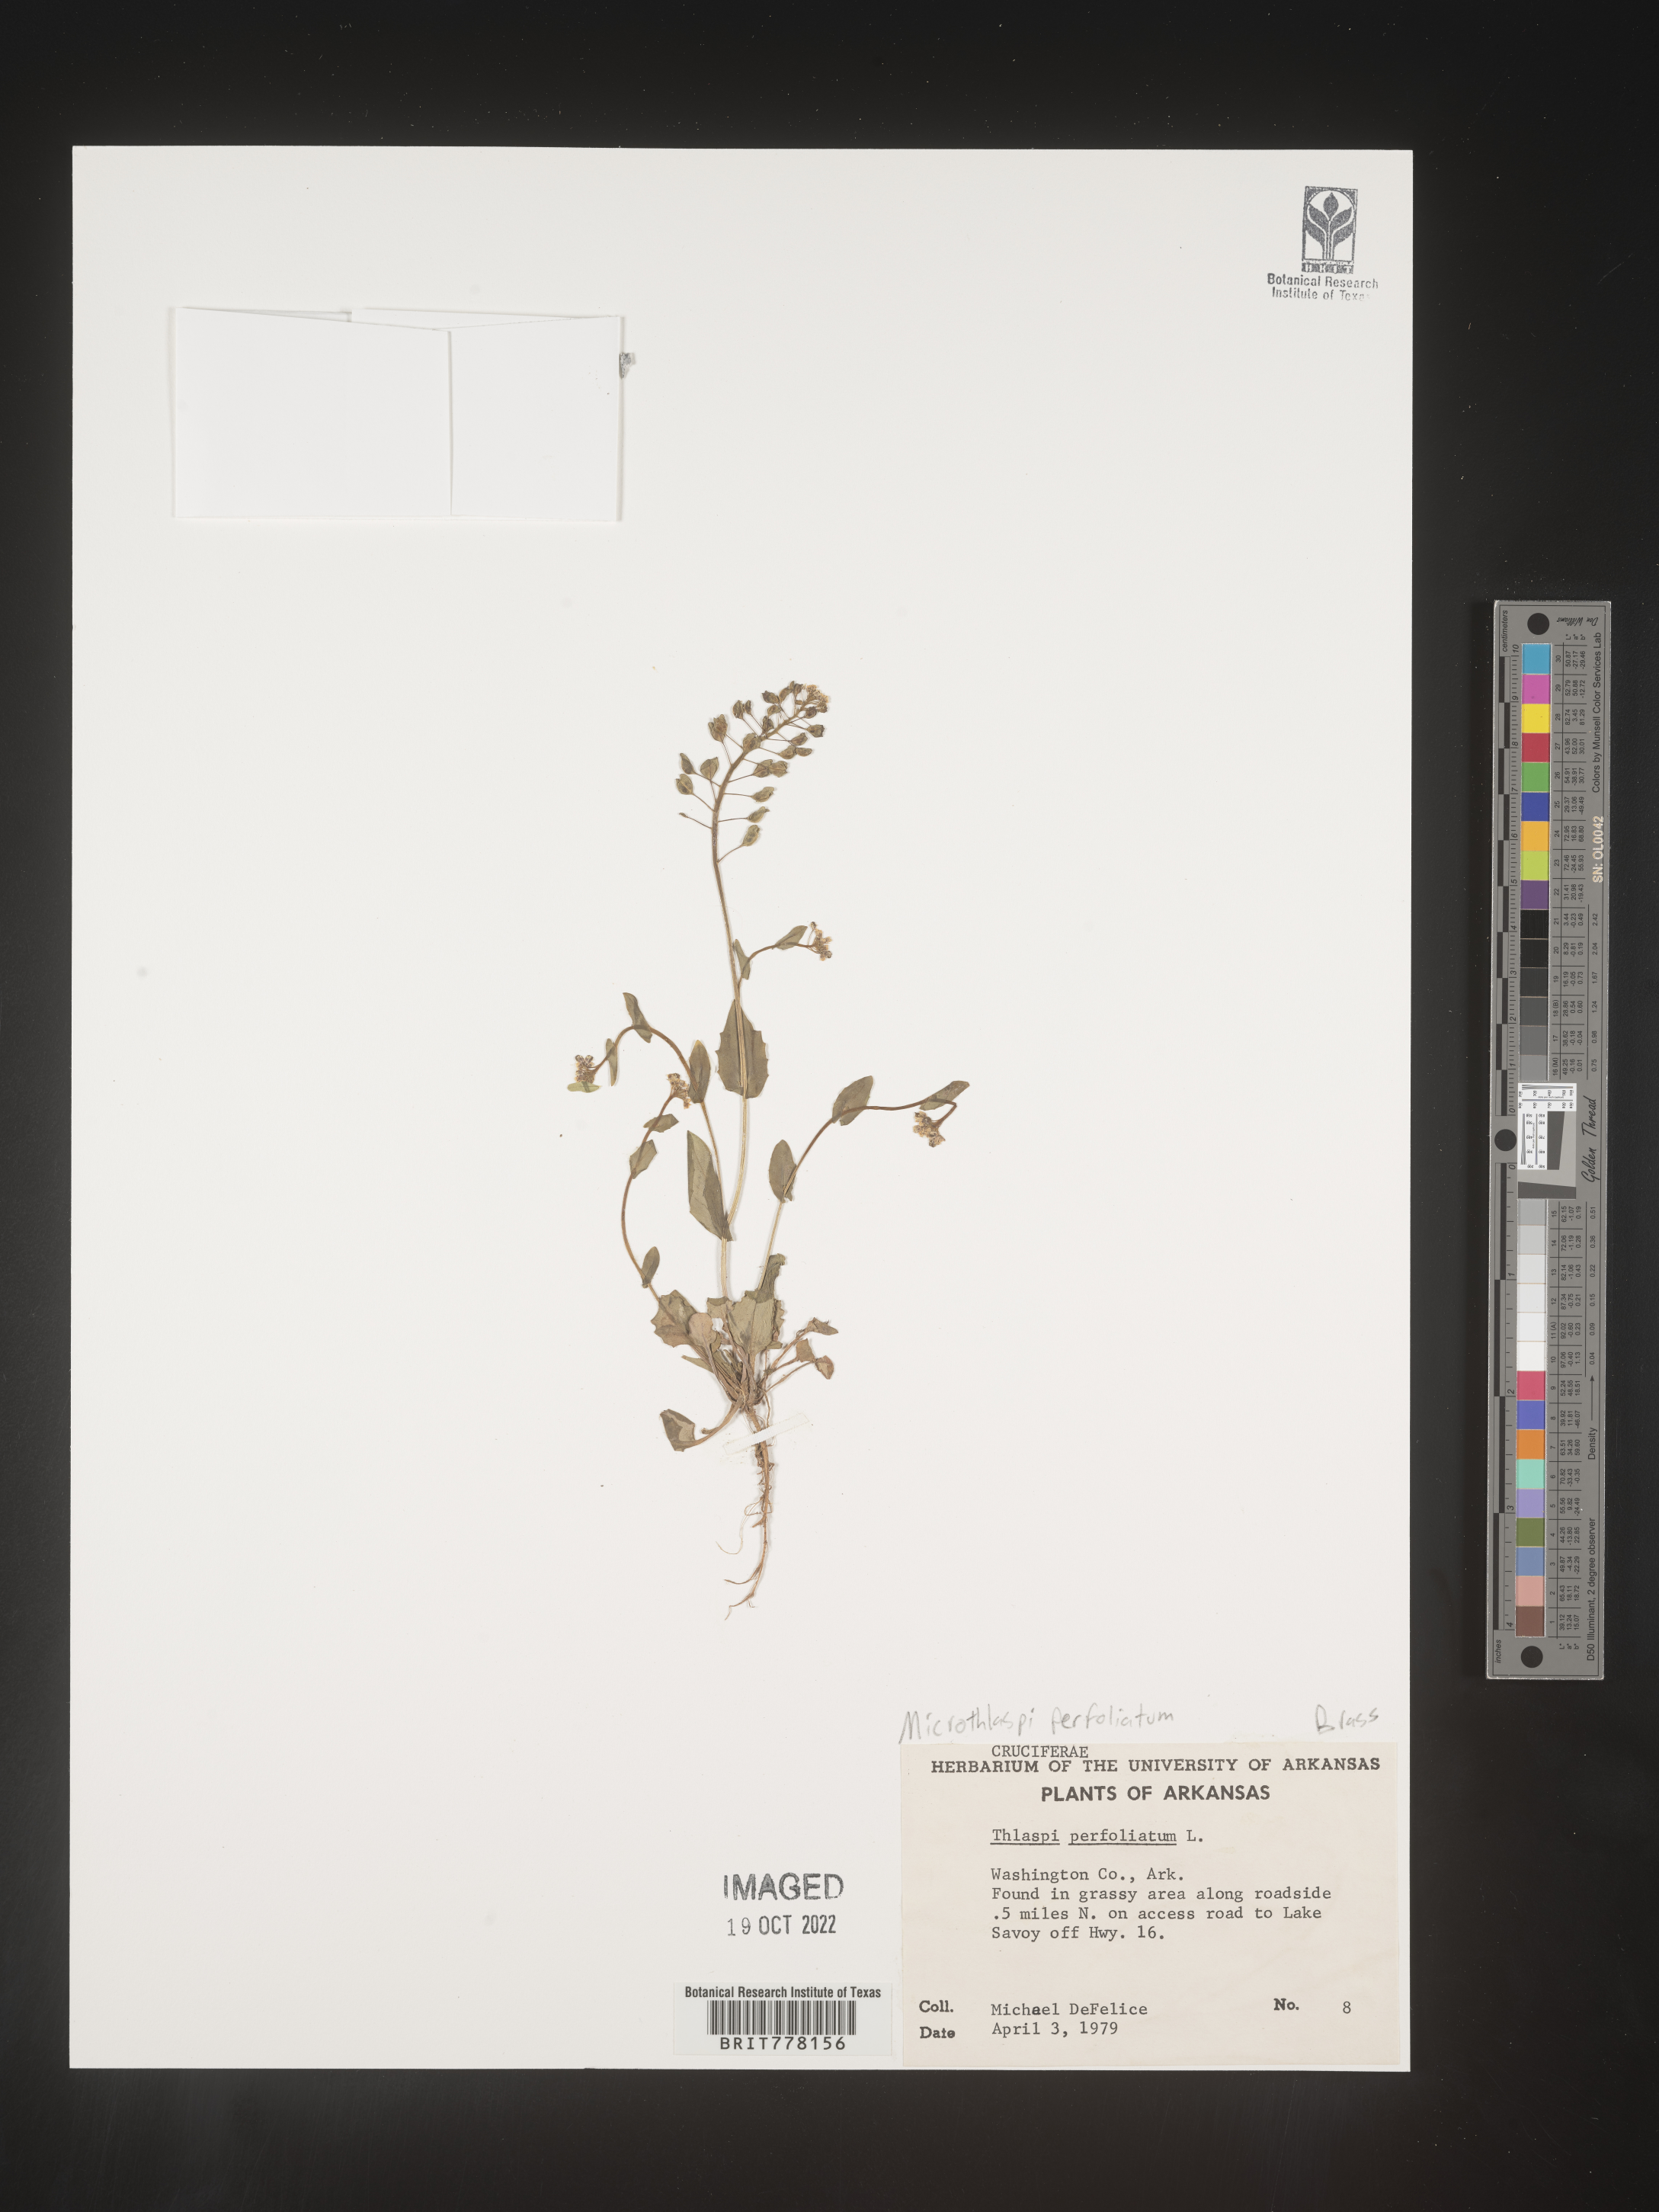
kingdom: Plantae
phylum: Tracheophyta
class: Magnoliopsida
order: Brassicales
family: Brassicaceae
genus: Noccaea
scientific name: Noccaea
